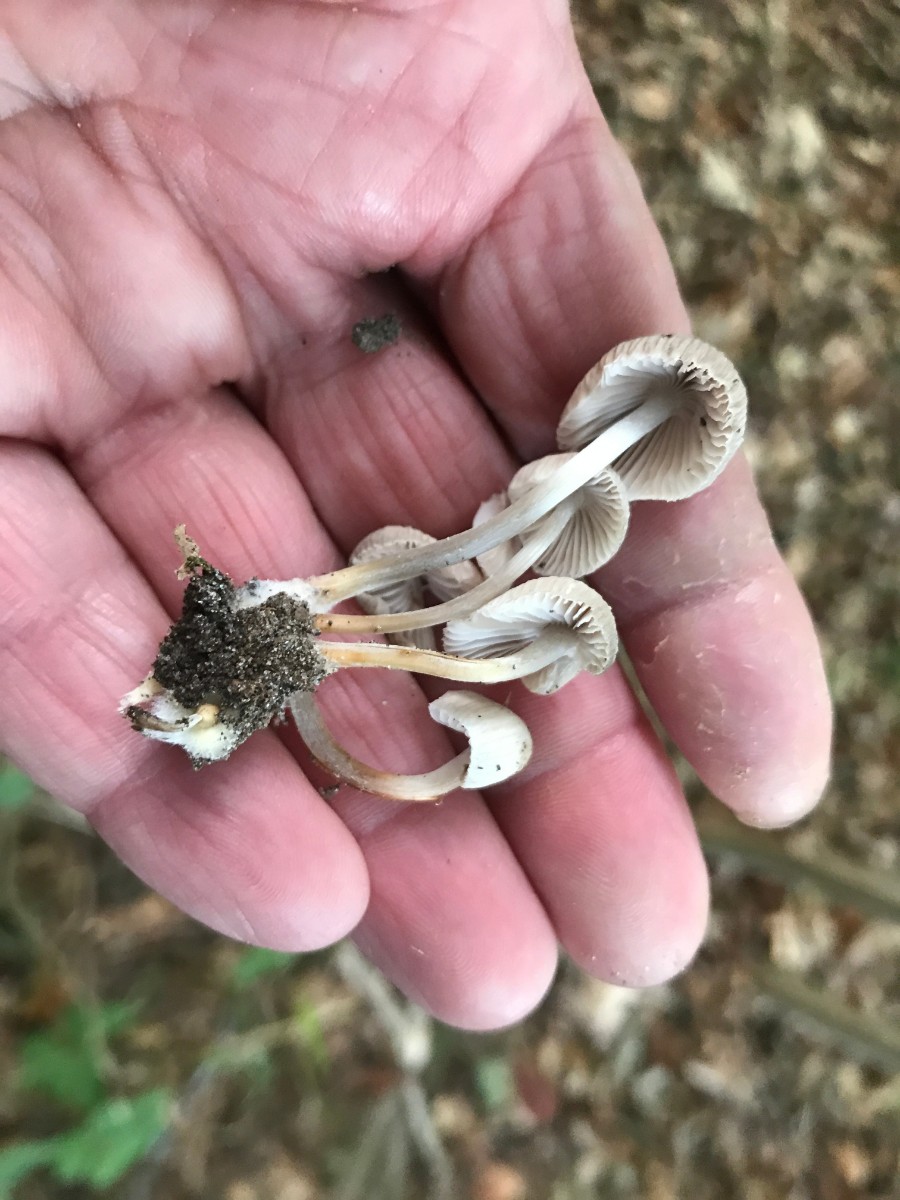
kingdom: Fungi
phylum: Basidiomycota
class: Agaricomycetes
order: Agaricales
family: Mycenaceae
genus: Mycena
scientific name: Mycena inclinata
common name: nikkende huesvamp
